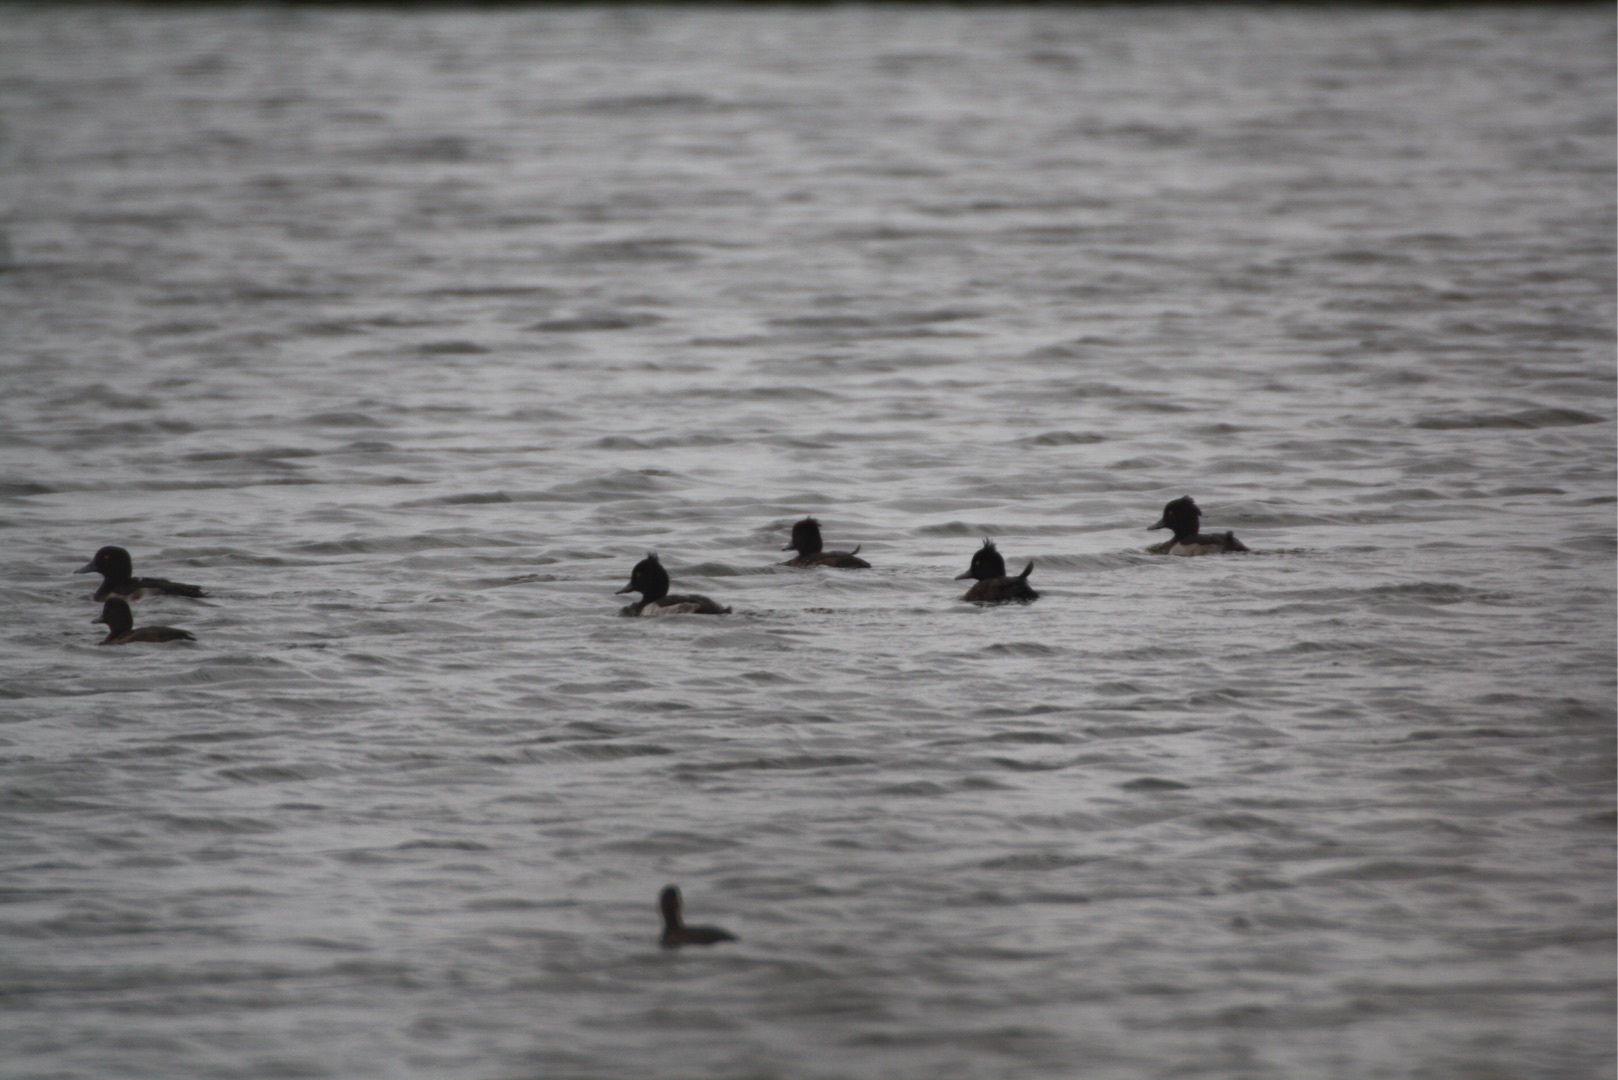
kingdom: Animalia
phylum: Chordata
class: Aves
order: Anseriformes
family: Anatidae
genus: Aythya
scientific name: Aythya fuligula
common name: Troldand
